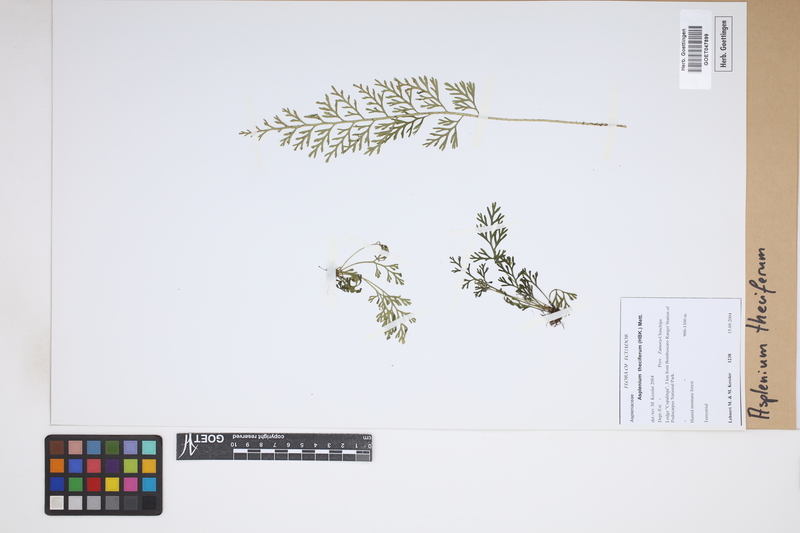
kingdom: Plantae
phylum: Tracheophyta
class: Polypodiopsida
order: Polypodiales
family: Aspleniaceae
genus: Asplenium
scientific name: Asplenium theciferum
